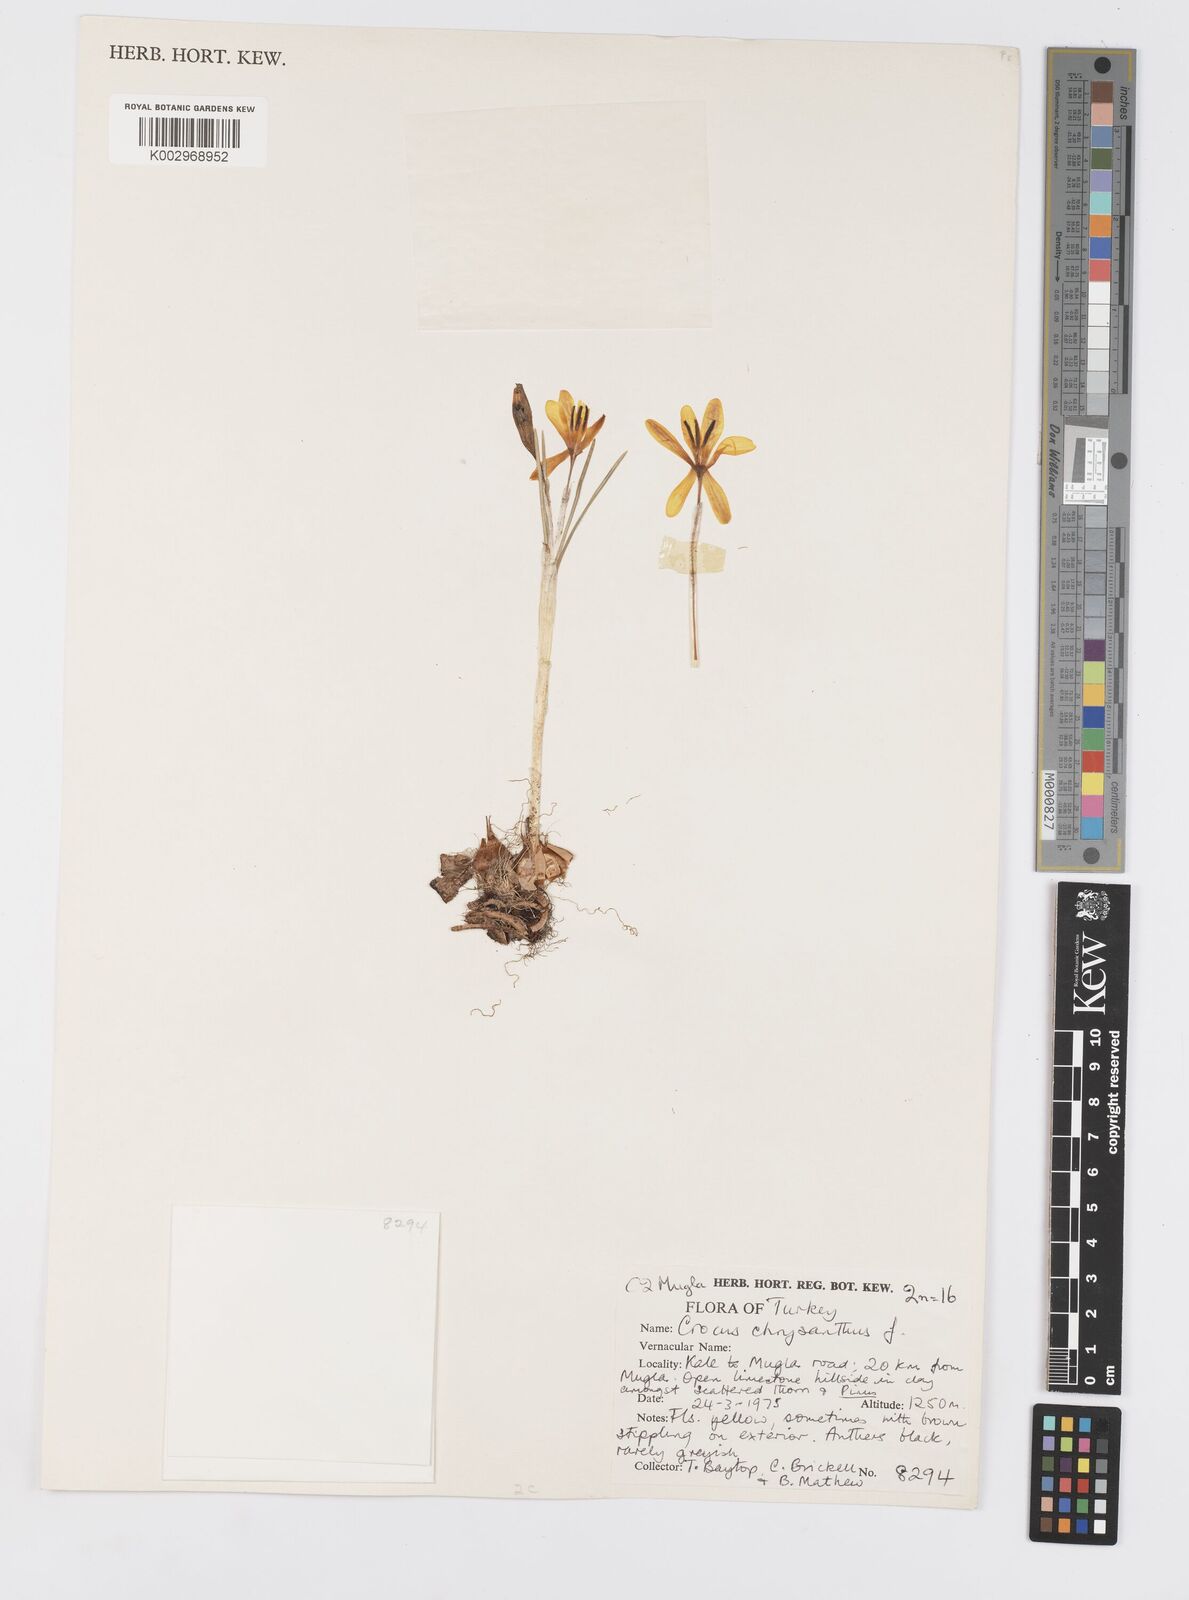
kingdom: Plantae
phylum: Tracheophyta
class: Liliopsida
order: Asparagales
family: Iridaceae
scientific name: Iridaceae
